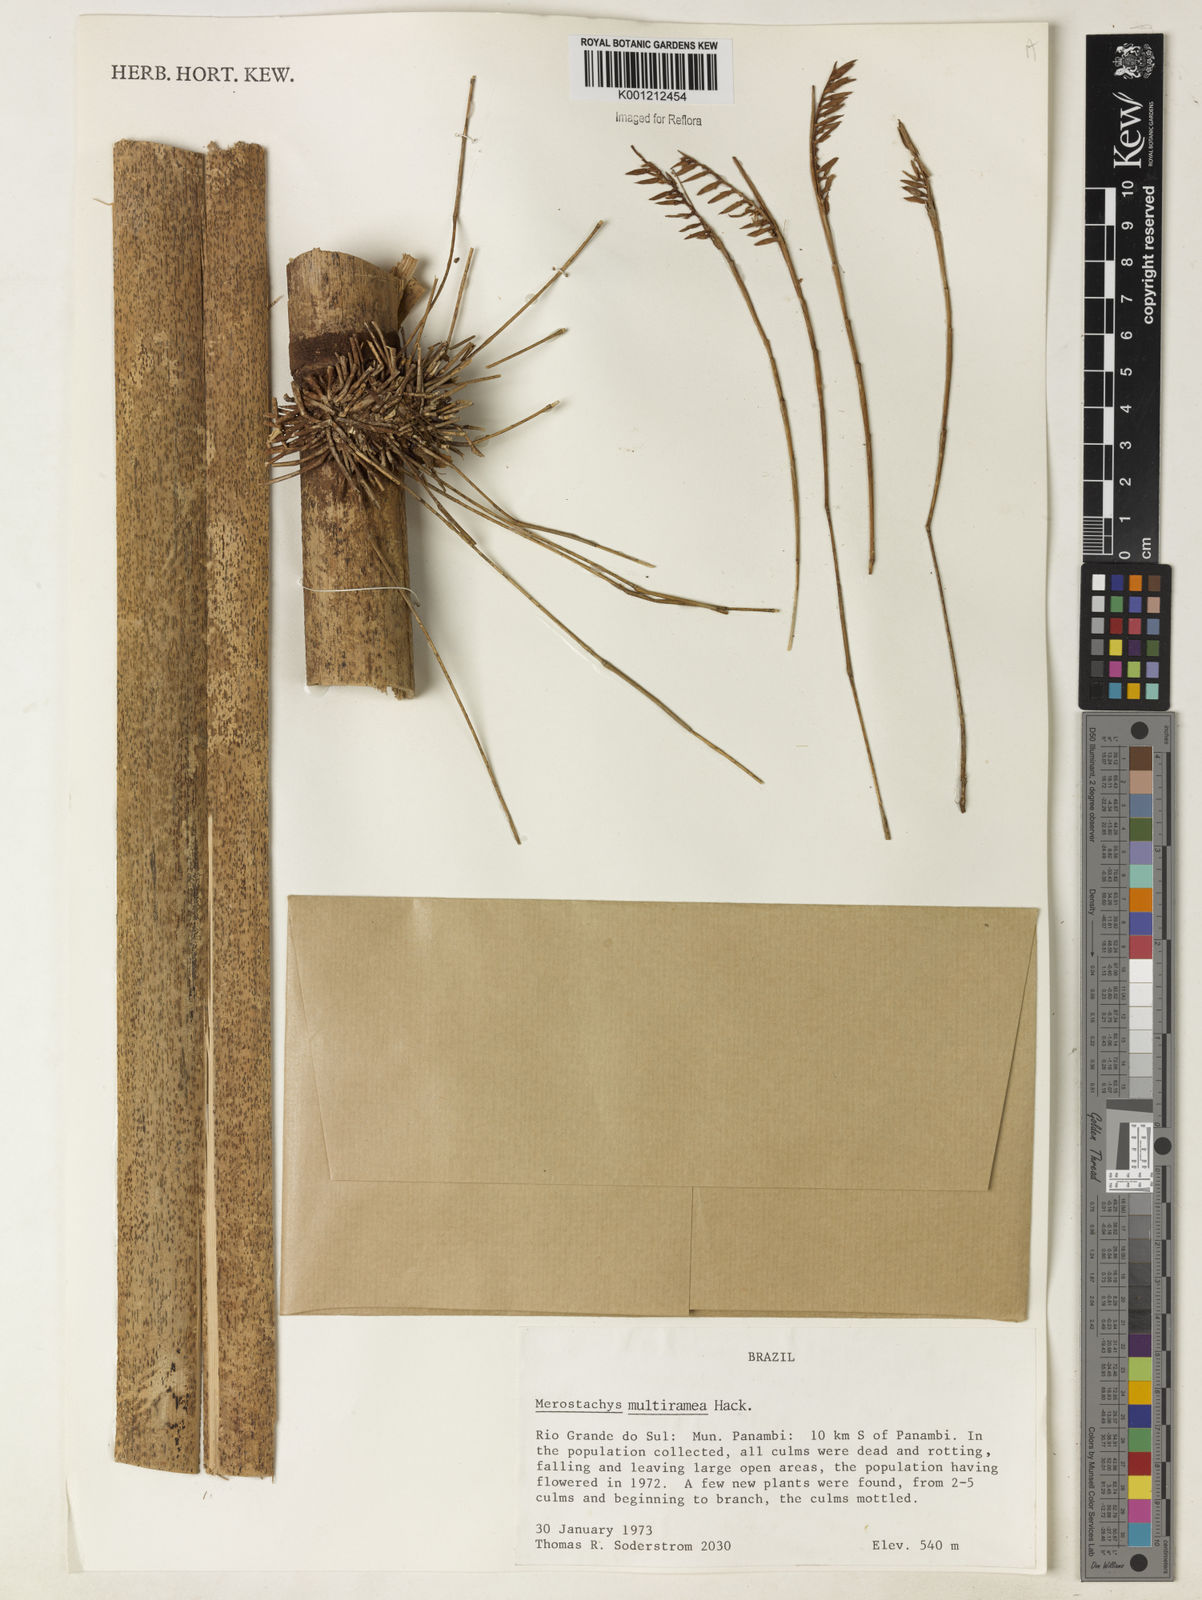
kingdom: Plantae
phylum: Tracheophyta
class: Liliopsida
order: Poales
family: Poaceae
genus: Merostachys
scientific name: Merostachys multiramea
